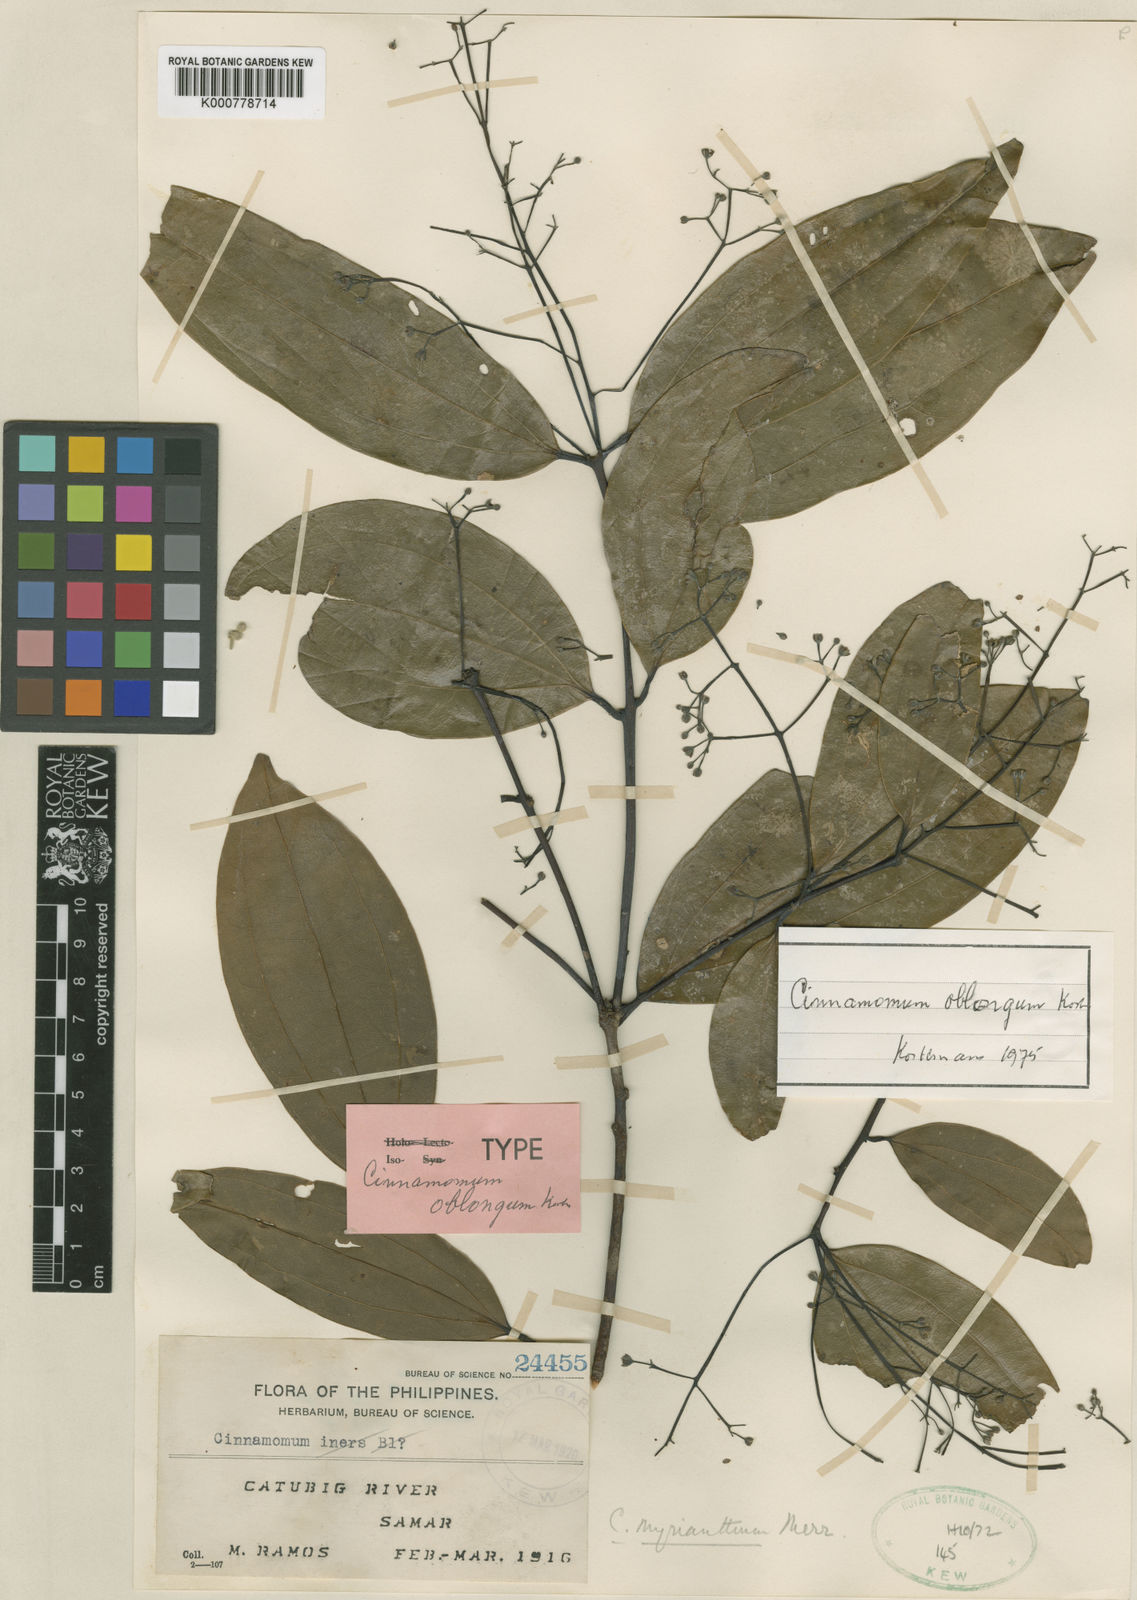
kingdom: Plantae
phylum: Tracheophyta
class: Magnoliopsida
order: Laurales
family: Lauraceae
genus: Cinnamomum
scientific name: Cinnamomum oblongum
